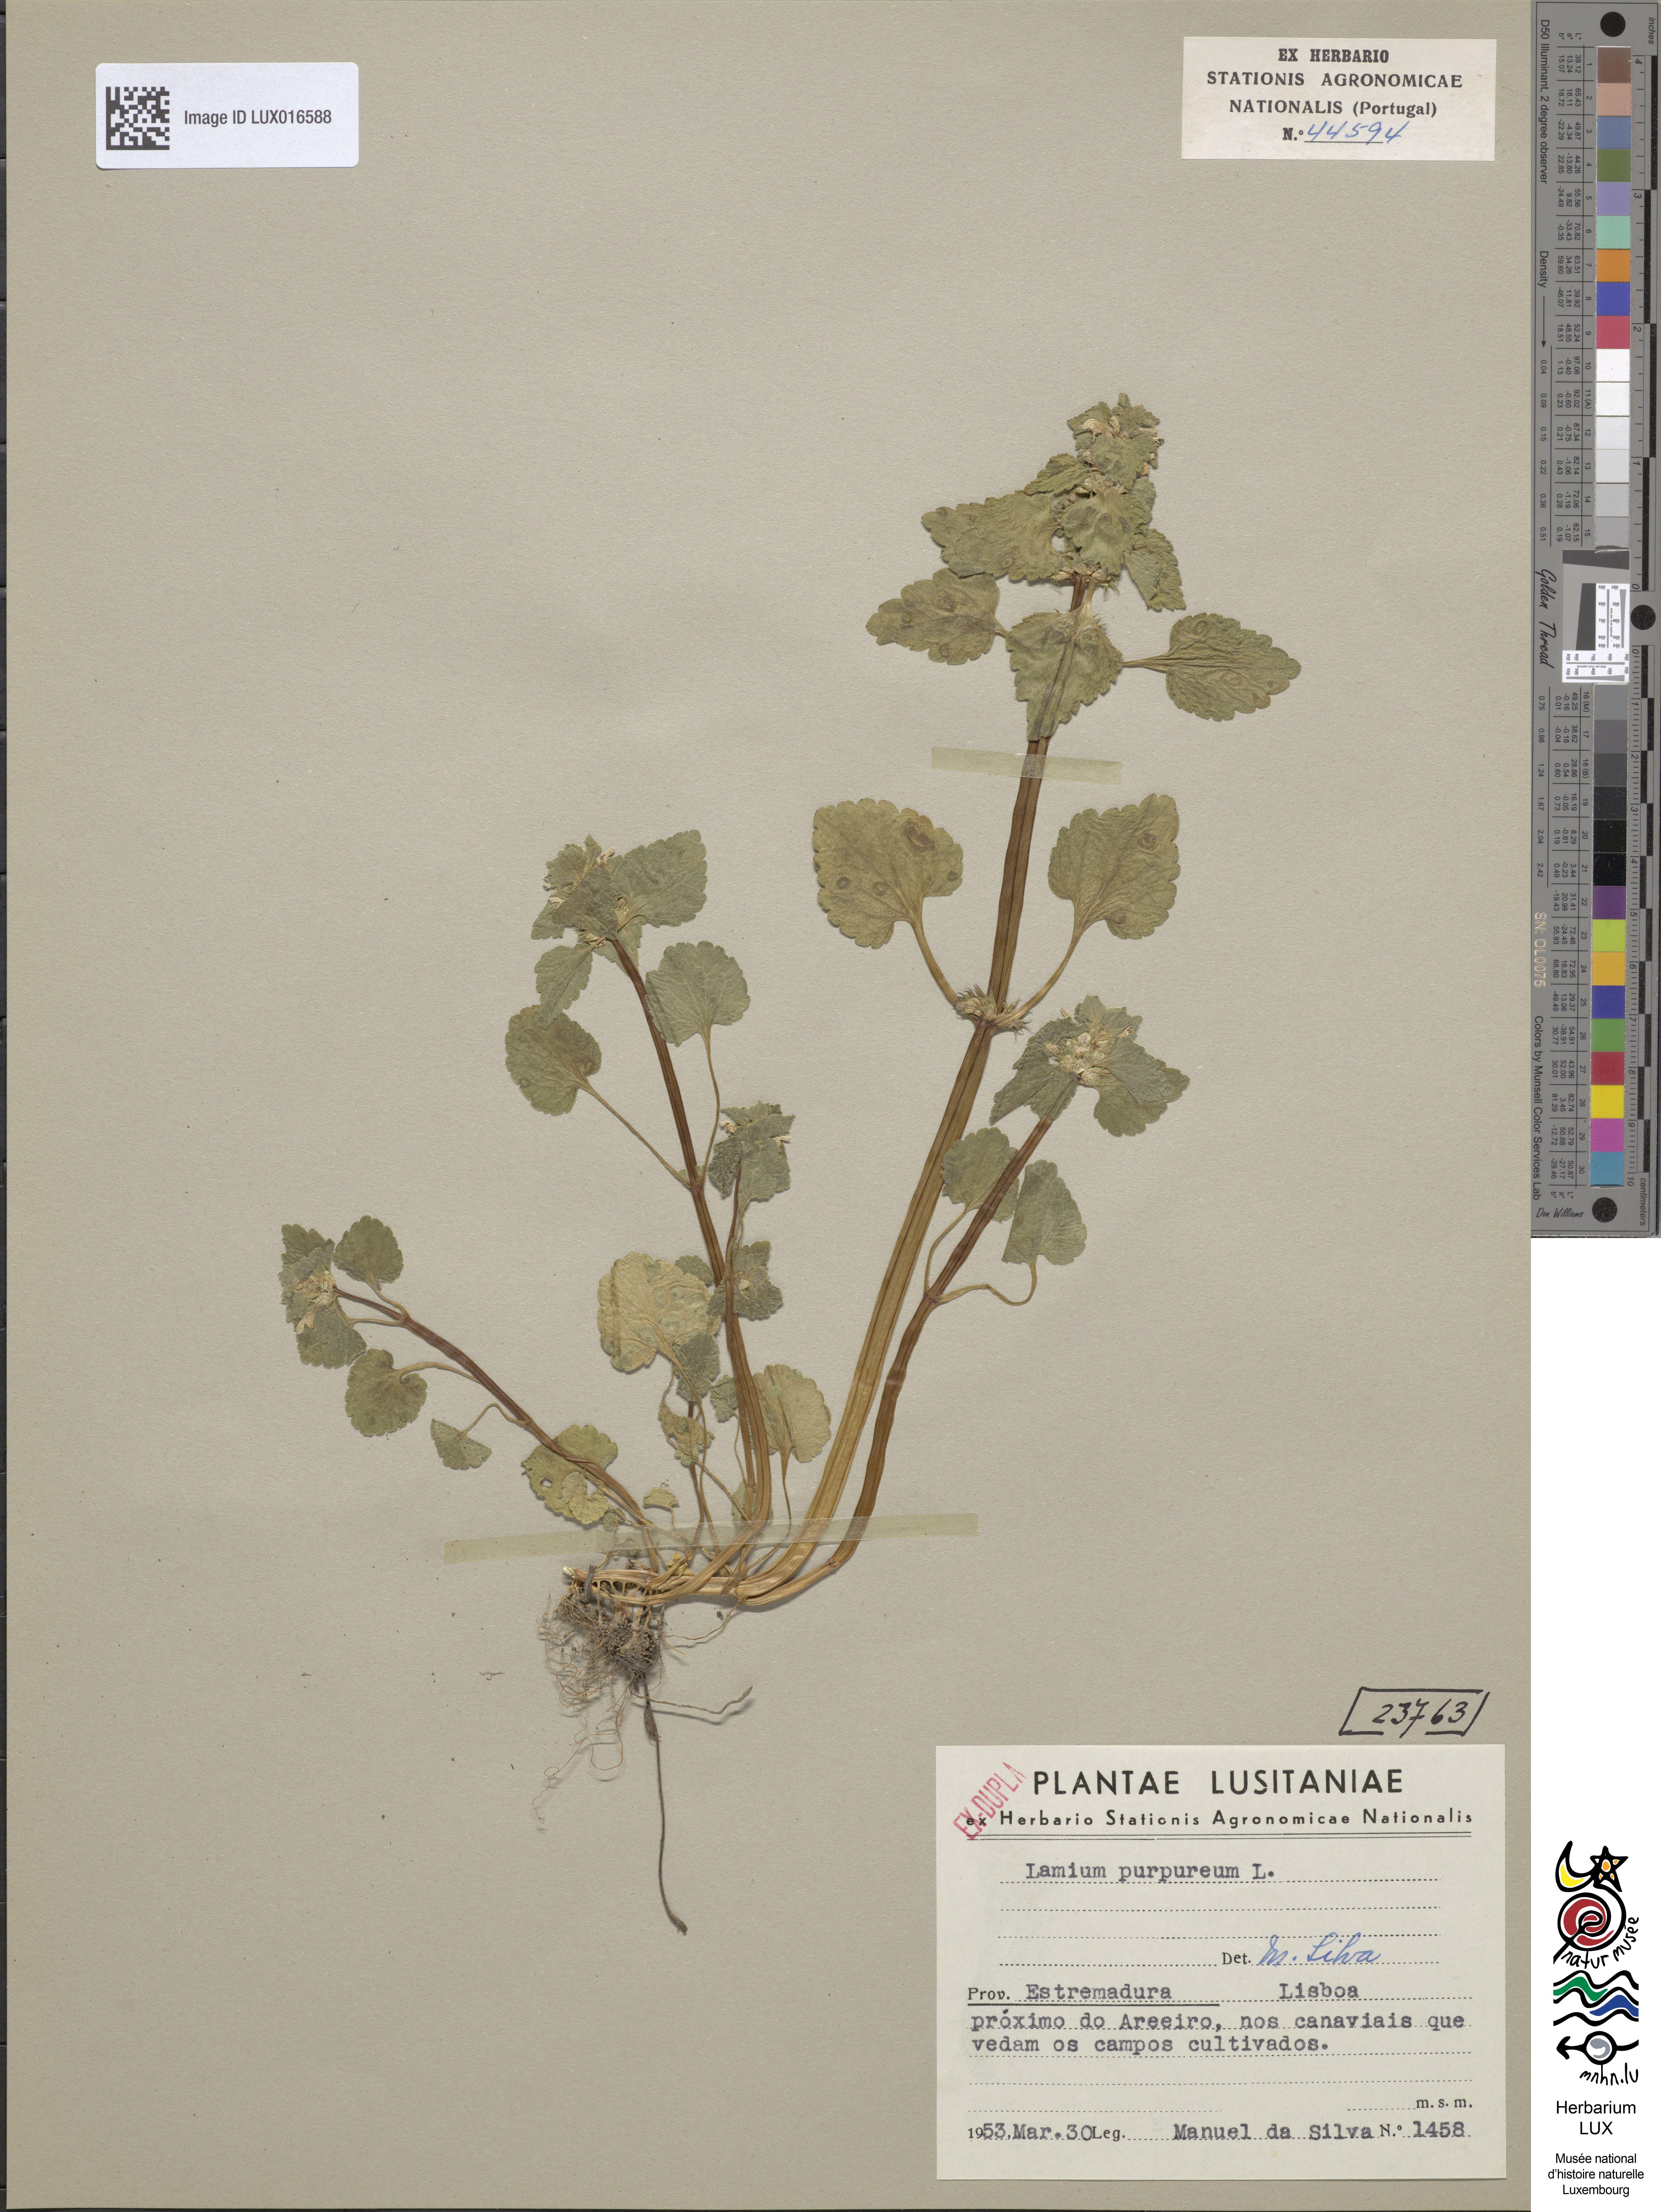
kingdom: Plantae
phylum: Tracheophyta
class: Magnoliopsida
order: Lamiales
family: Lamiaceae
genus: Lamium
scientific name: Lamium purpureum
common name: Red dead-nettle
